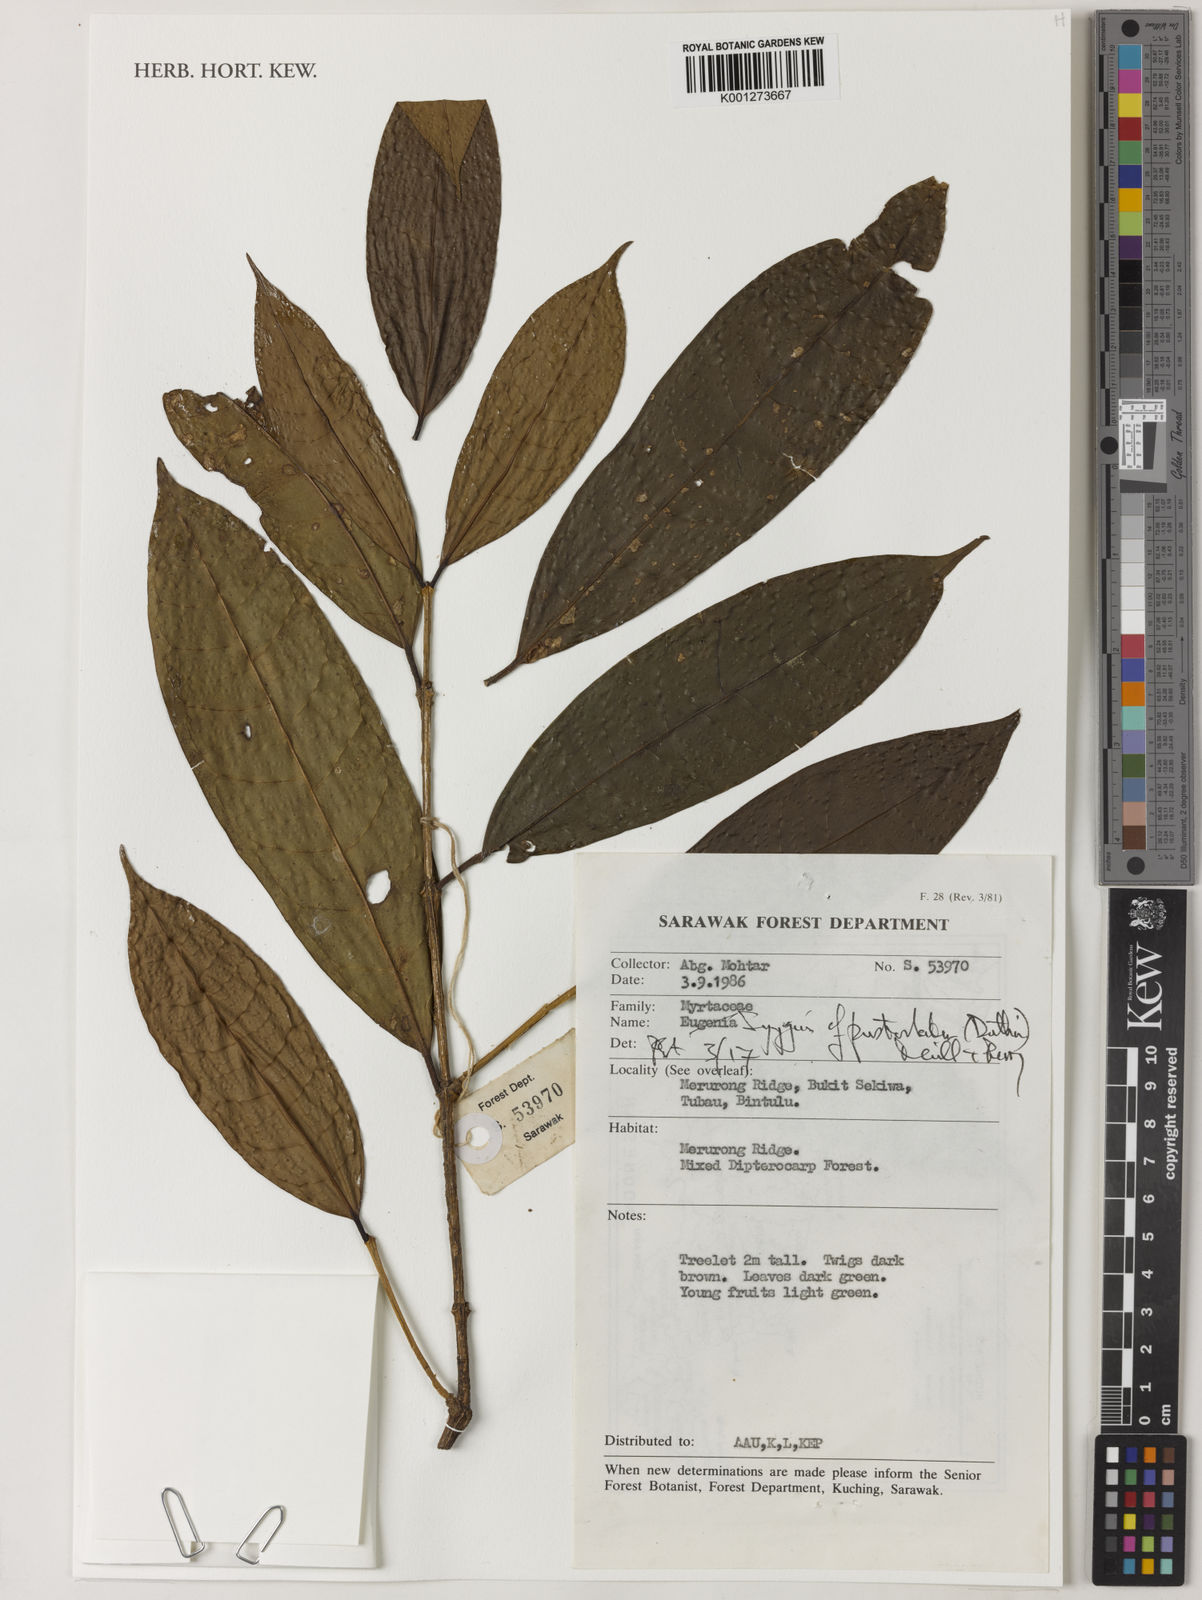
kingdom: Plantae
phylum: Tracheophyta
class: Magnoliopsida
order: Myrtales
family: Myrtaceae
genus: Syzygium
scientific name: Syzygium pustulatum
